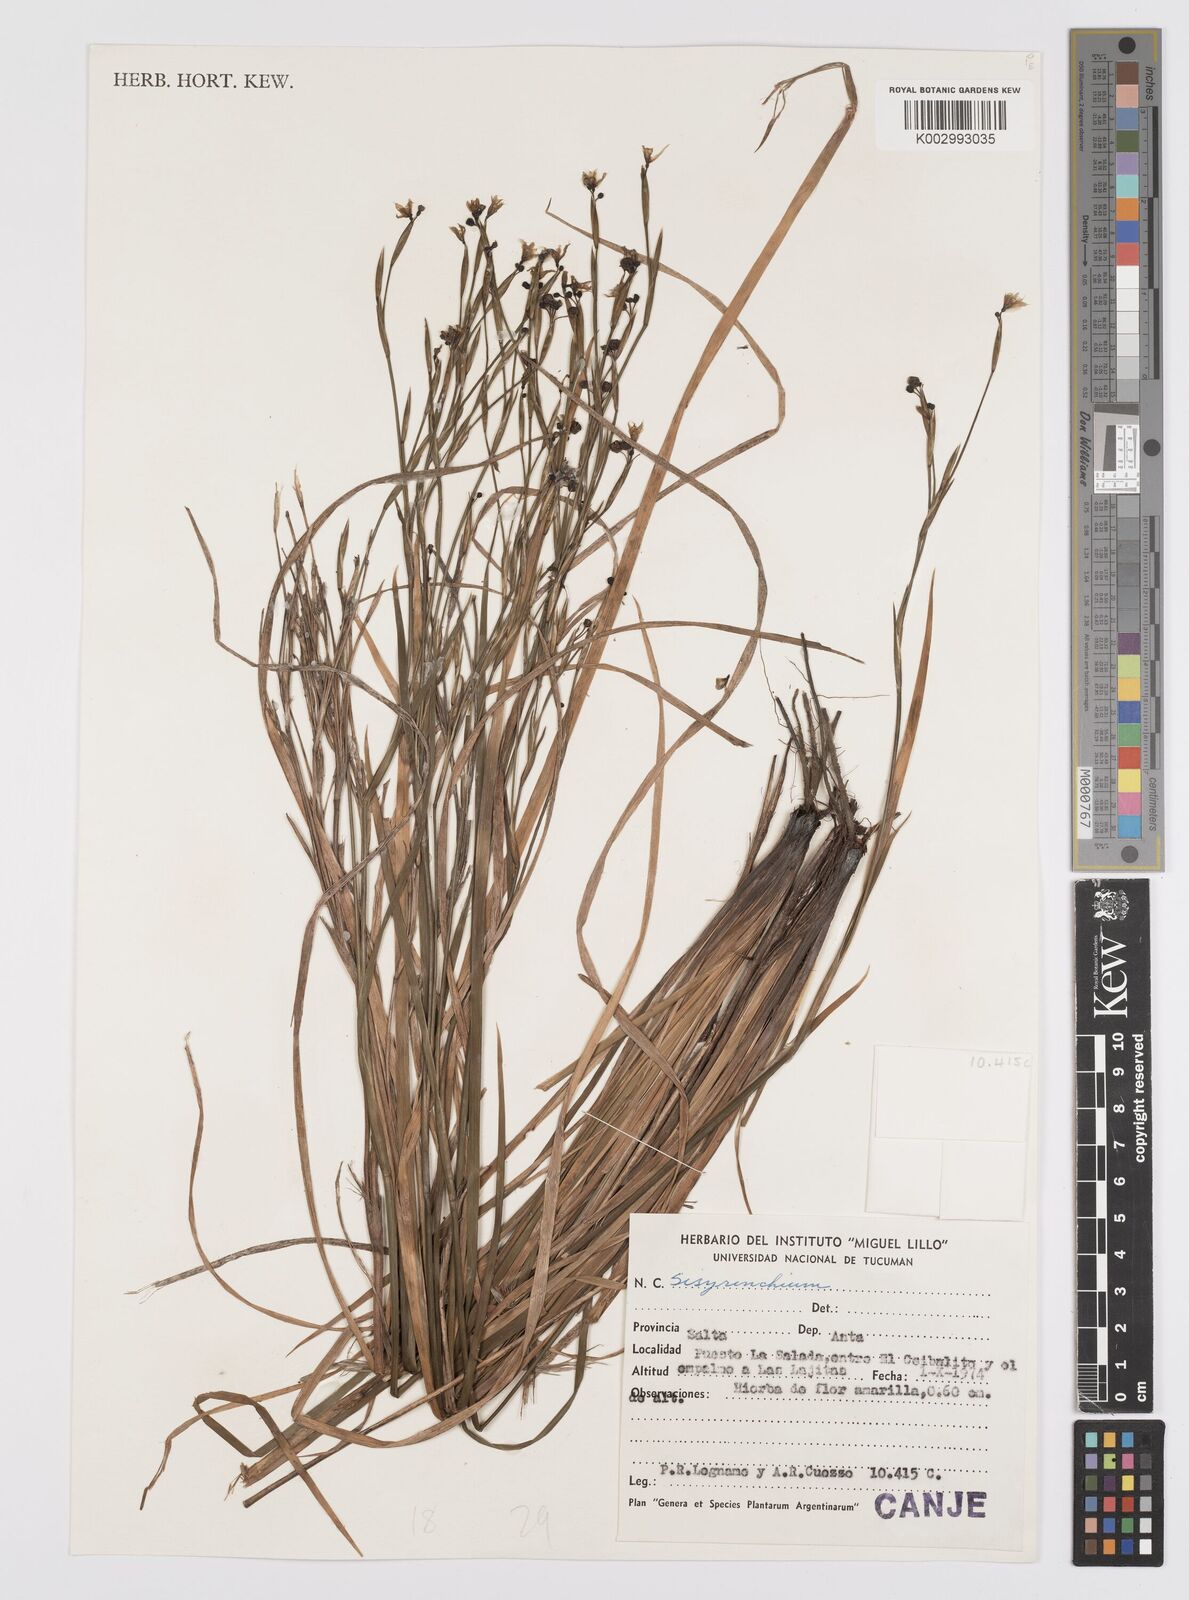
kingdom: Plantae
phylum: Tracheophyta
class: Liliopsida
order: Asparagales
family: Iridaceae
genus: Sisyrinchium
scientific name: Sisyrinchium
